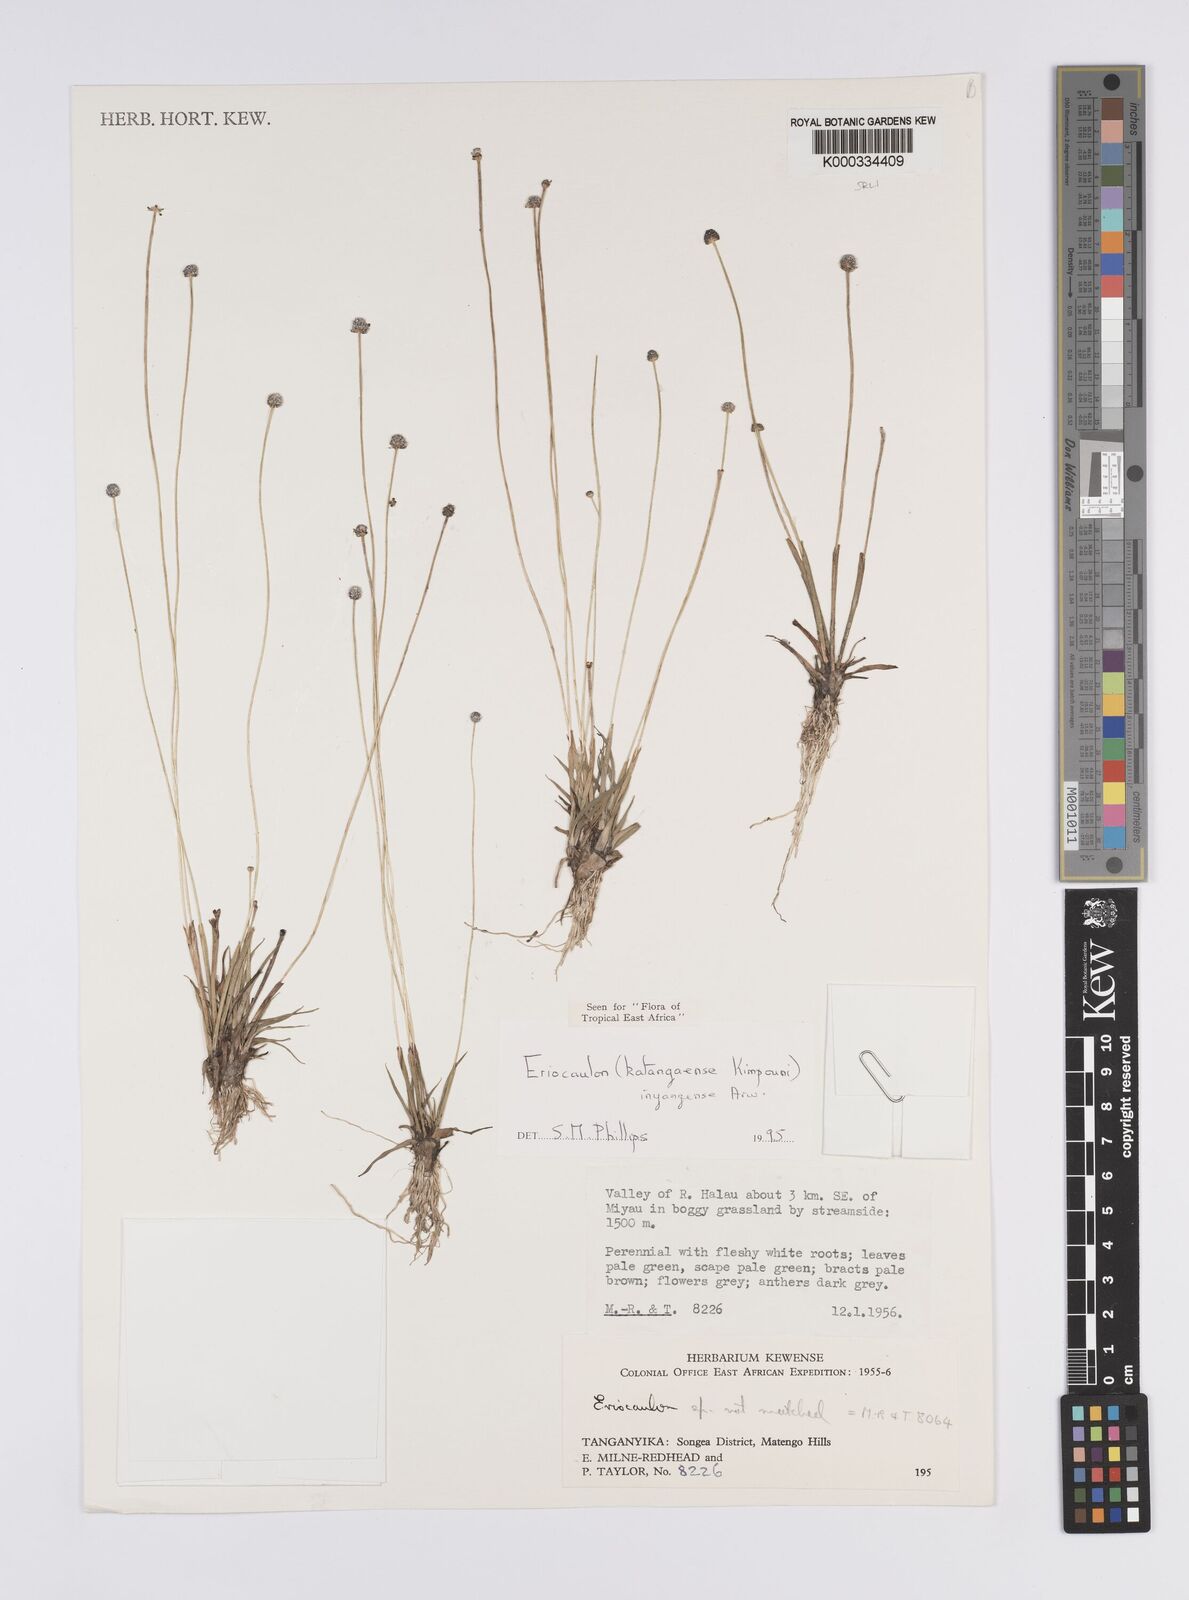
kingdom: Plantae
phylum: Tracheophyta
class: Liliopsida
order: Poales
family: Eriocaulaceae
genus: Eriocaulon
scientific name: Eriocaulon inyangense
